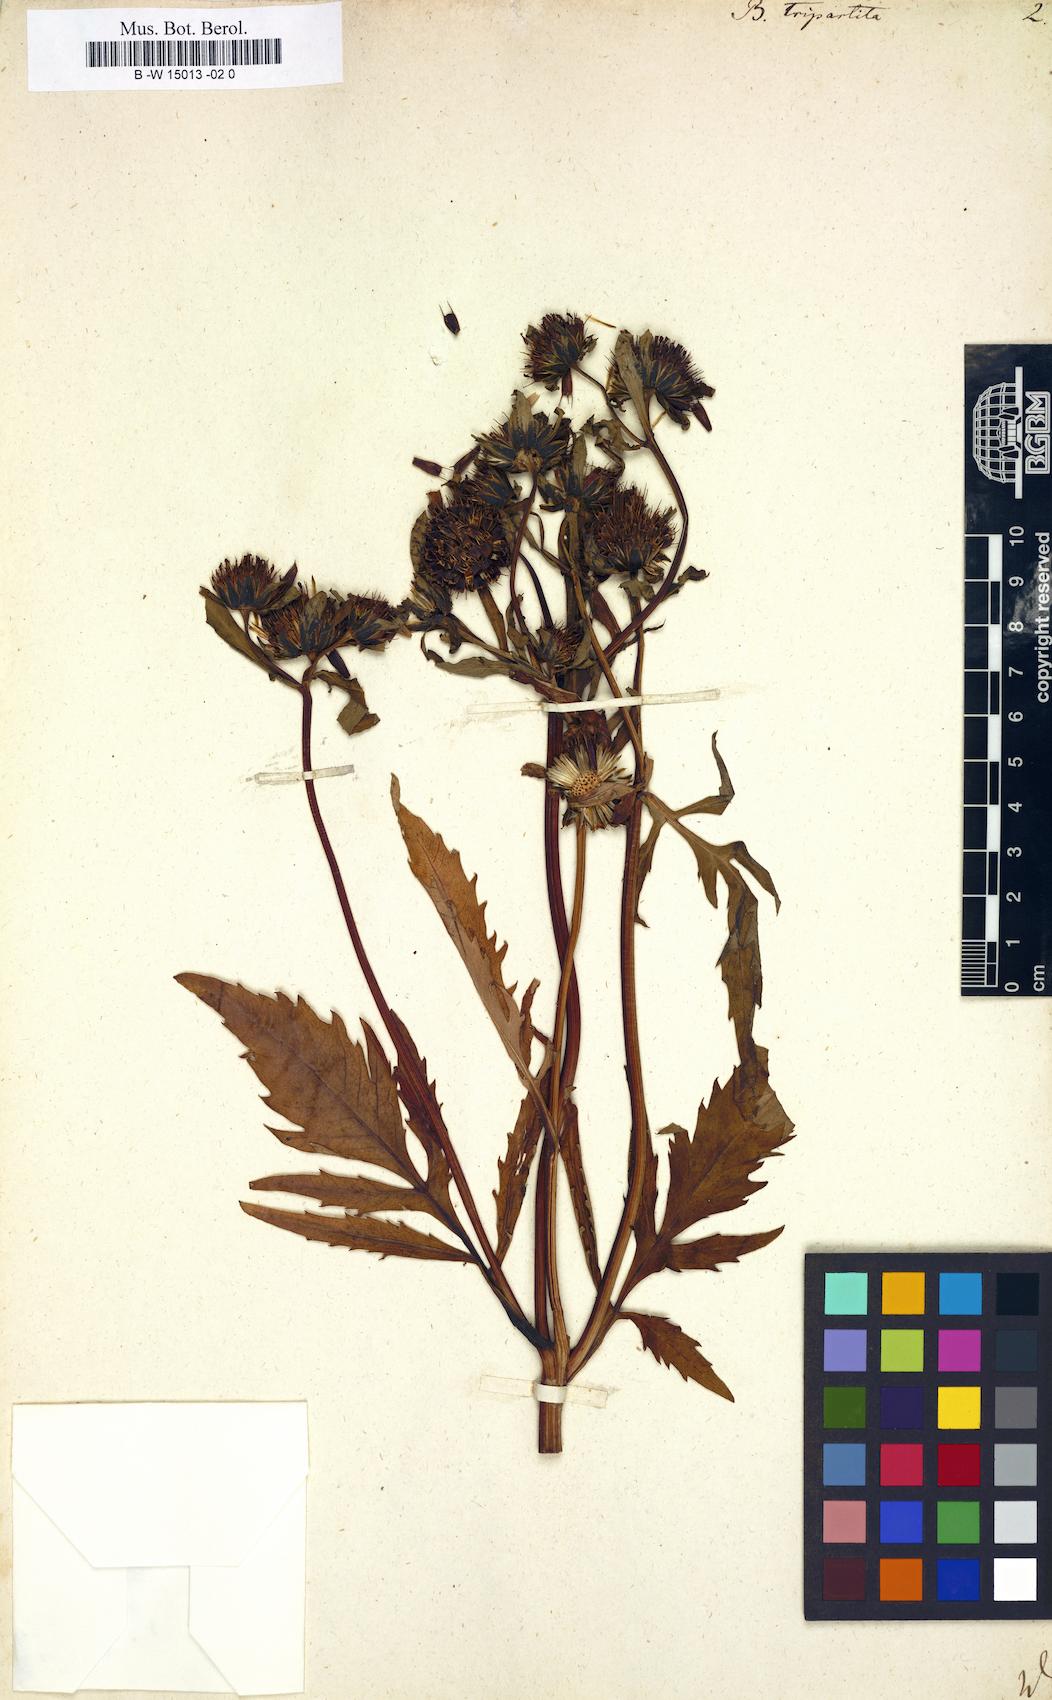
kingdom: Plantae
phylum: Tracheophyta
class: Magnoliopsida
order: Asterales
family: Asteraceae
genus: Bidens
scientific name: Bidens tripartita
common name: Trifid bur-marigold
